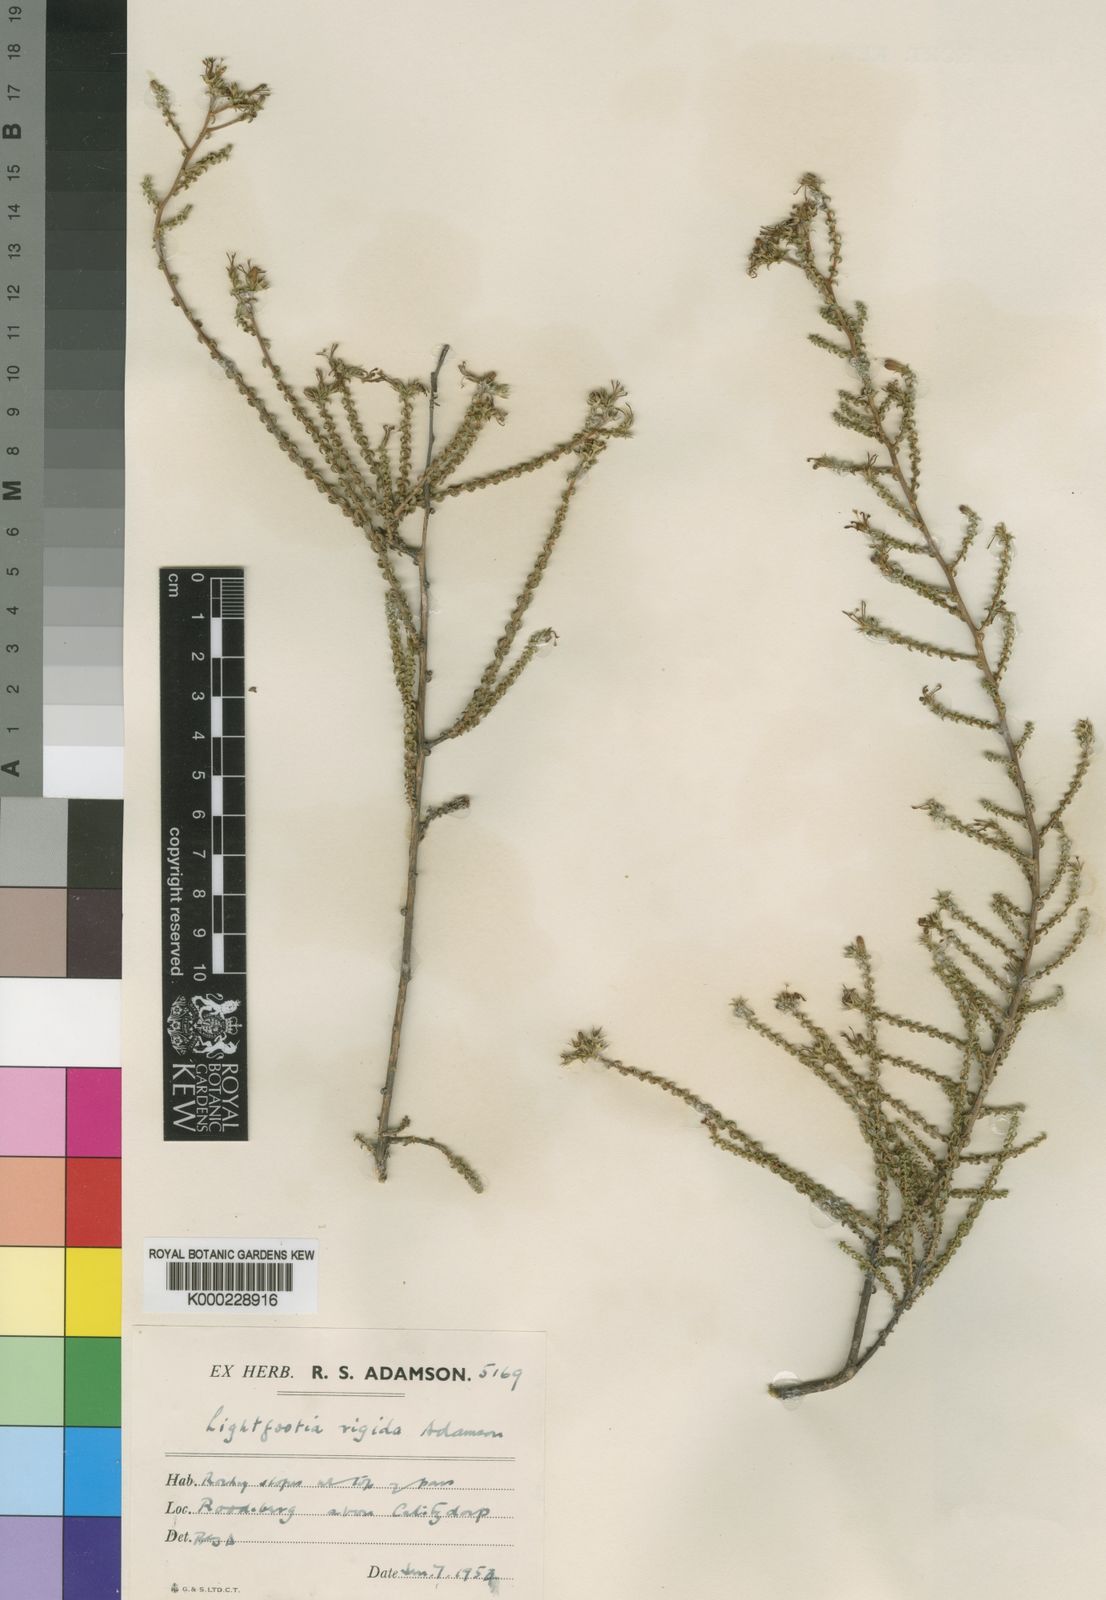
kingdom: Plantae
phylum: Tracheophyta
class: Magnoliopsida
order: Asterales
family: Campanulaceae
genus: Wahlenbergia
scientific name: Wahlenbergia neorigida
